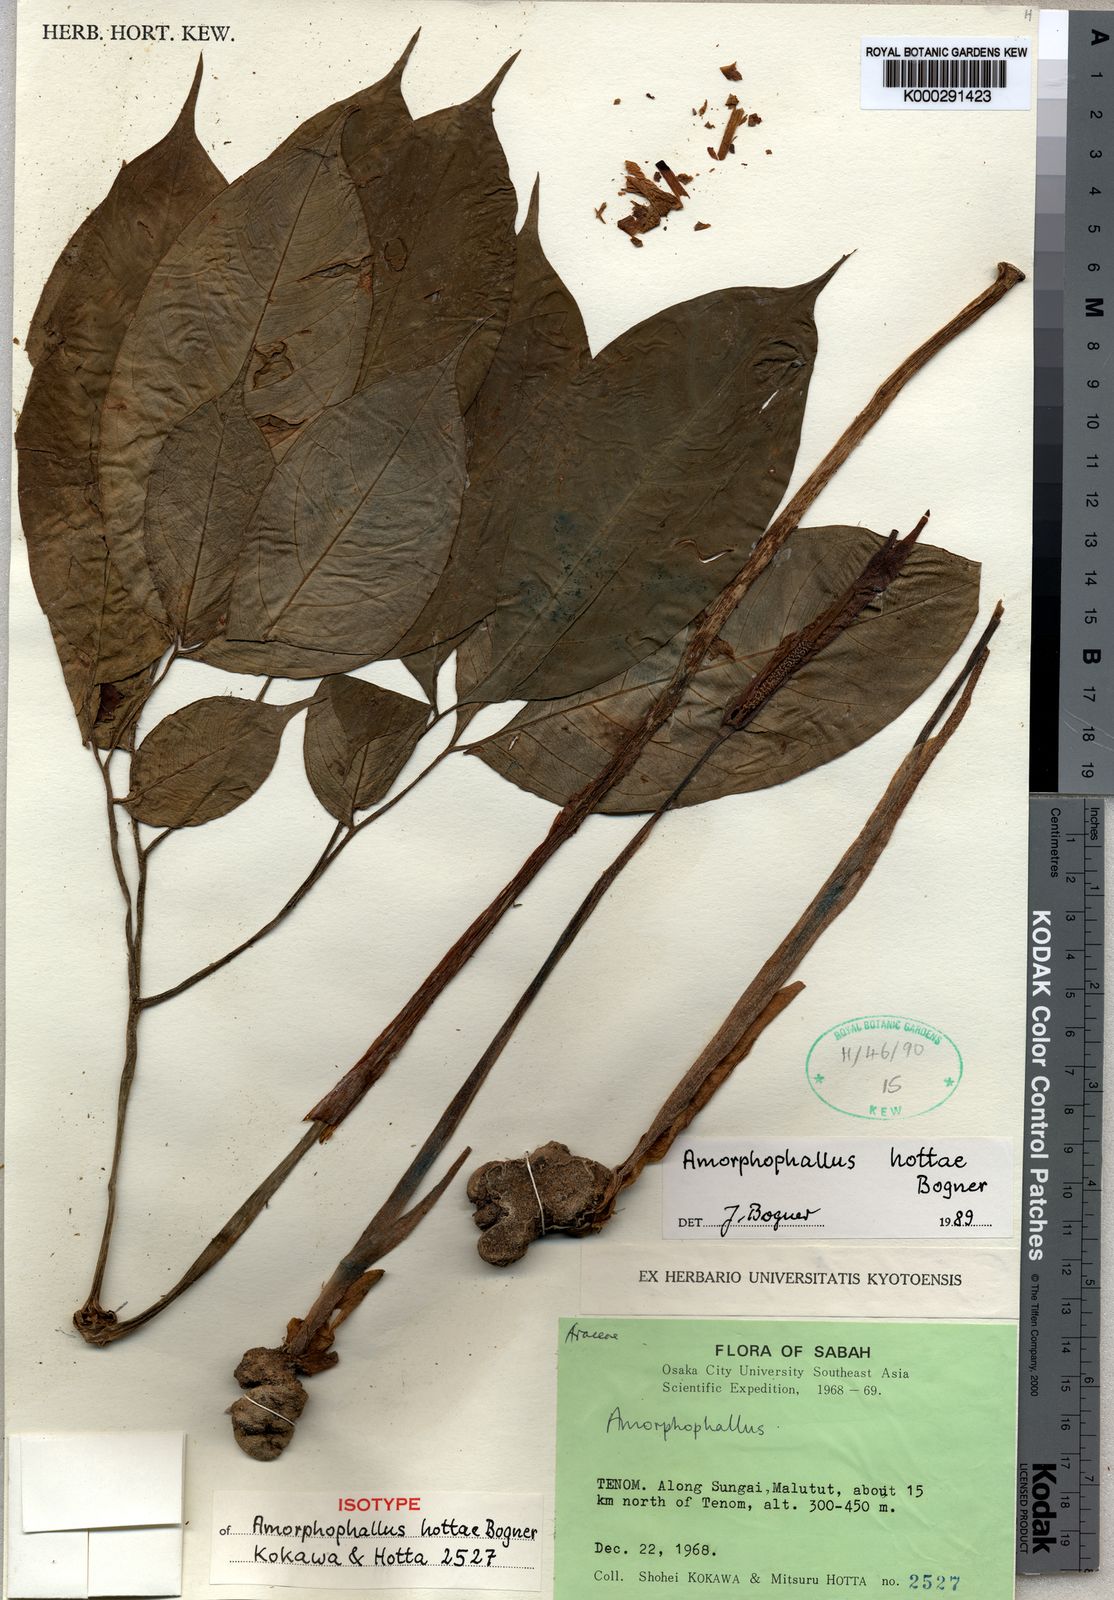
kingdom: Plantae
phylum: Tracheophyta
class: Liliopsida
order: Alismatales
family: Araceae
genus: Amorphophallus
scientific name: Amorphophallus hottae
